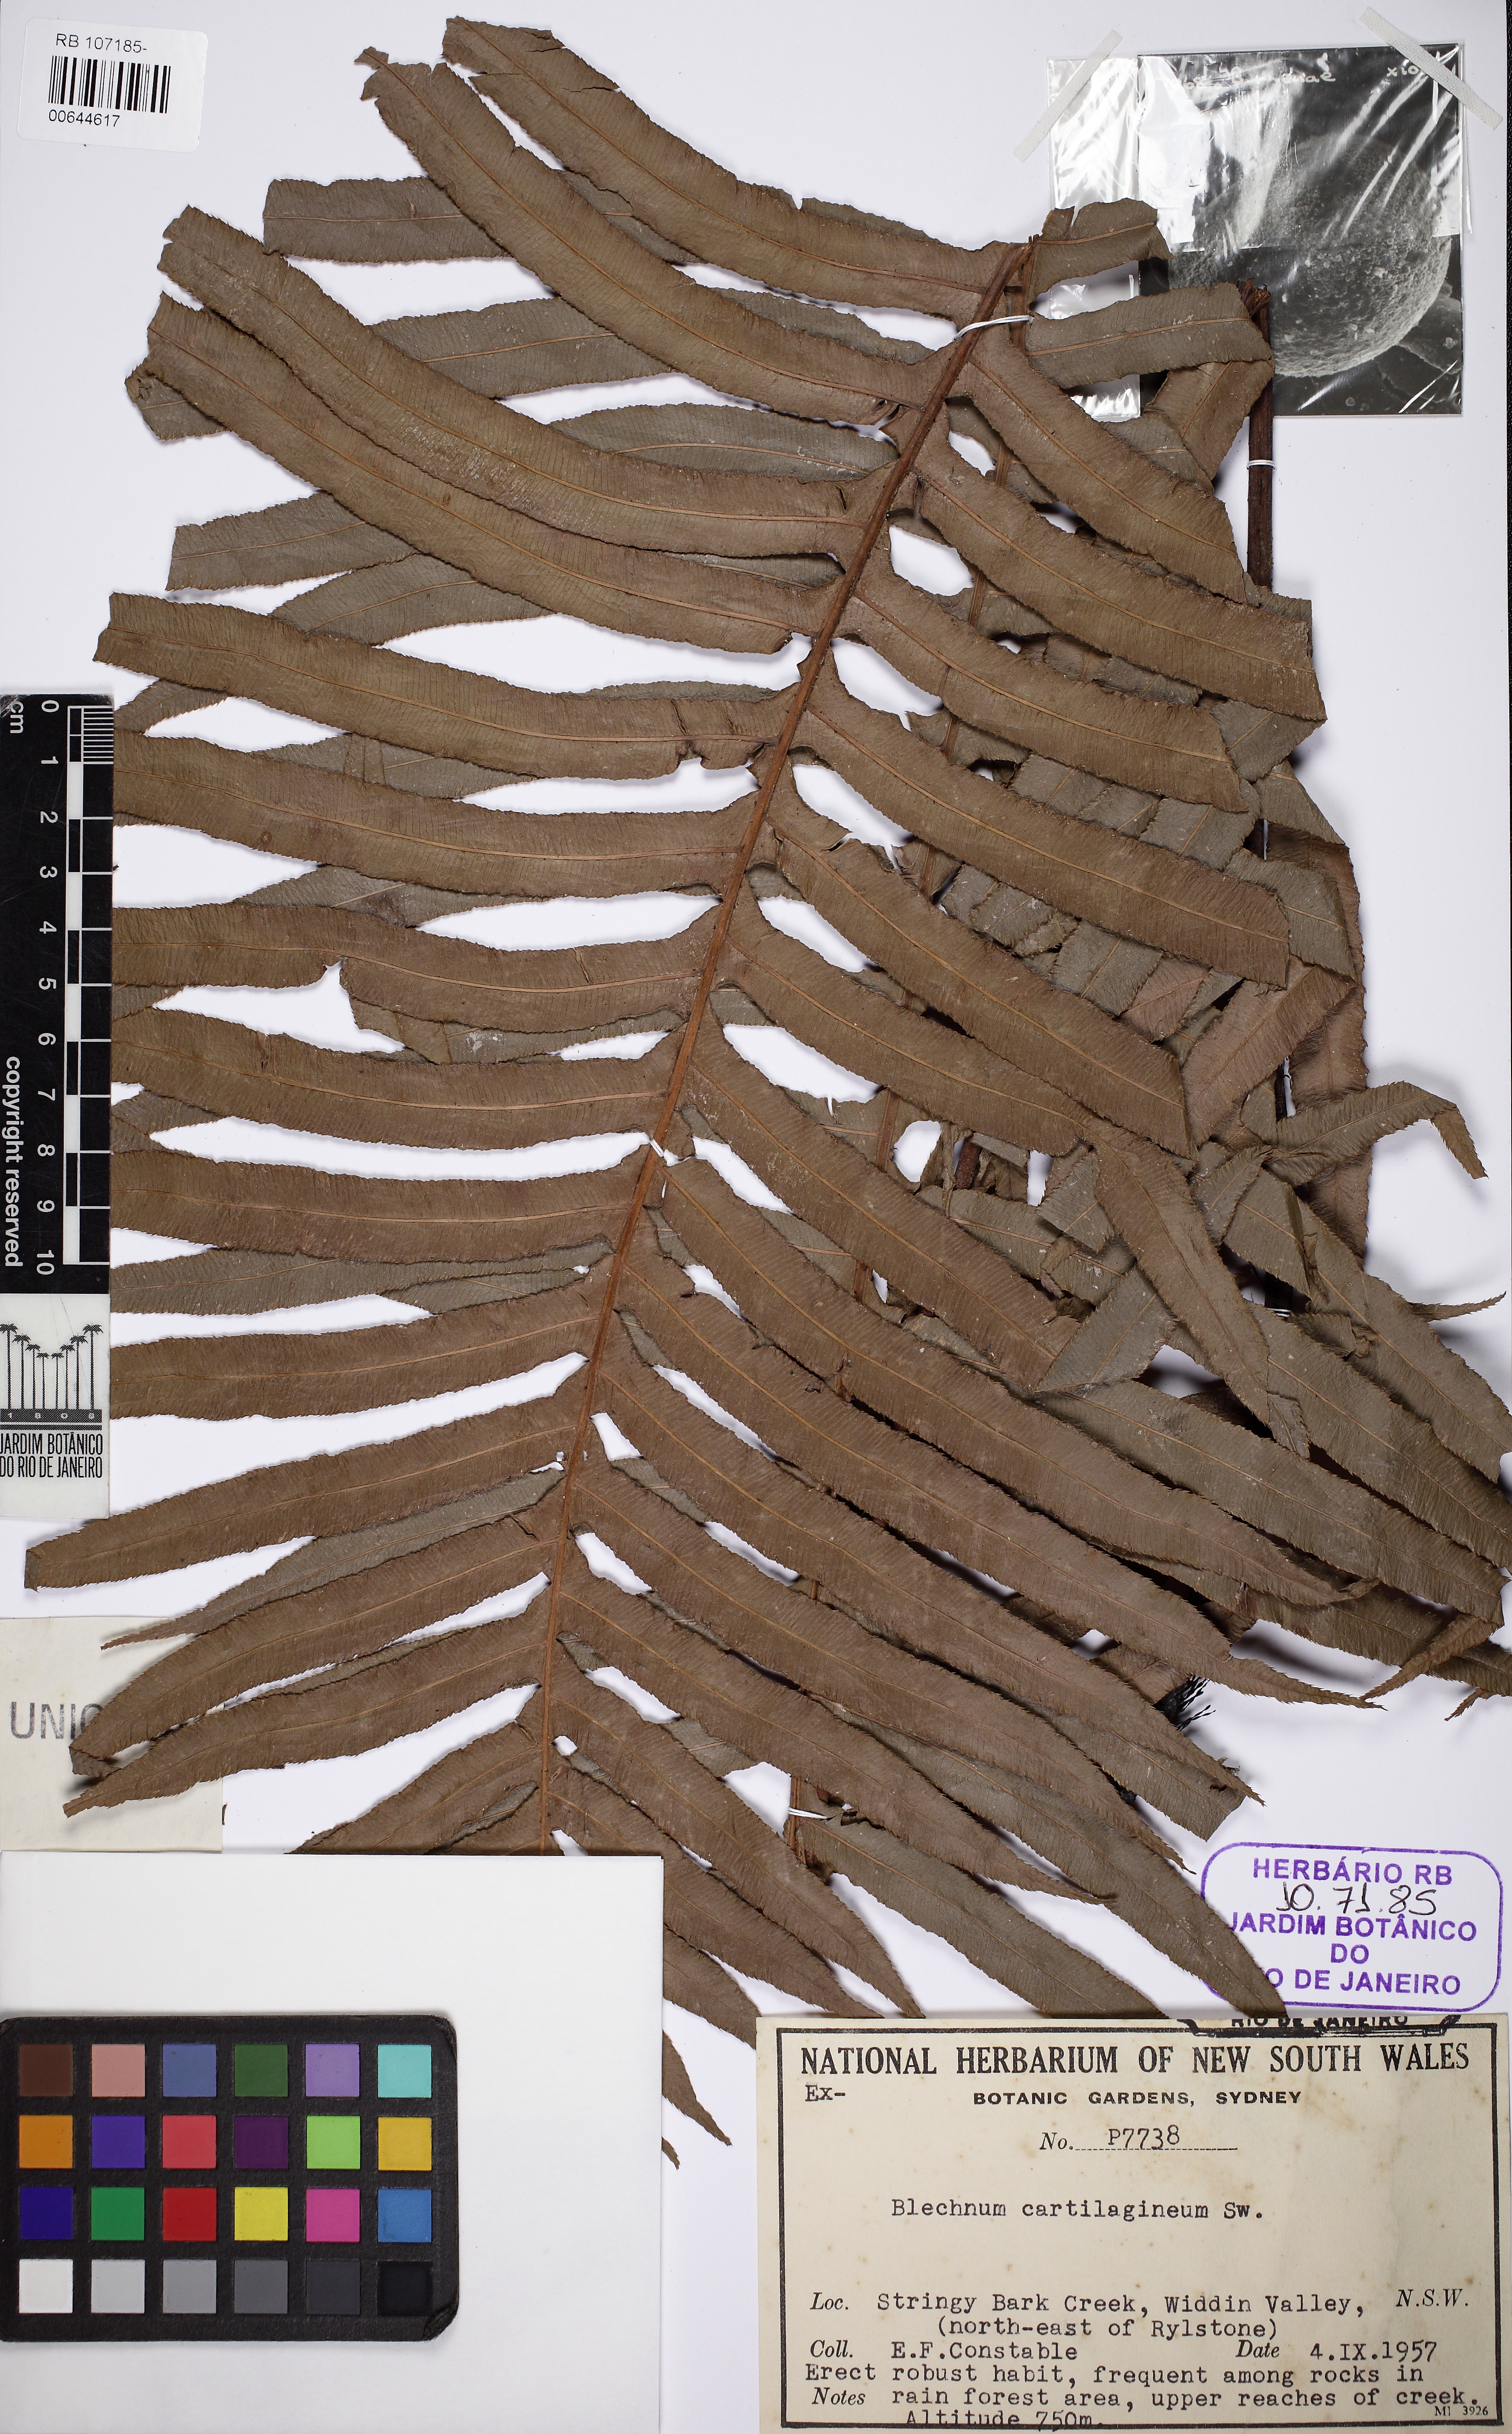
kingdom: Plantae
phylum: Tracheophyta
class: Polypodiopsida
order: Polypodiales
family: Blechnaceae
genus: Oceaniopteris
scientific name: Oceaniopteris cartilaginea
